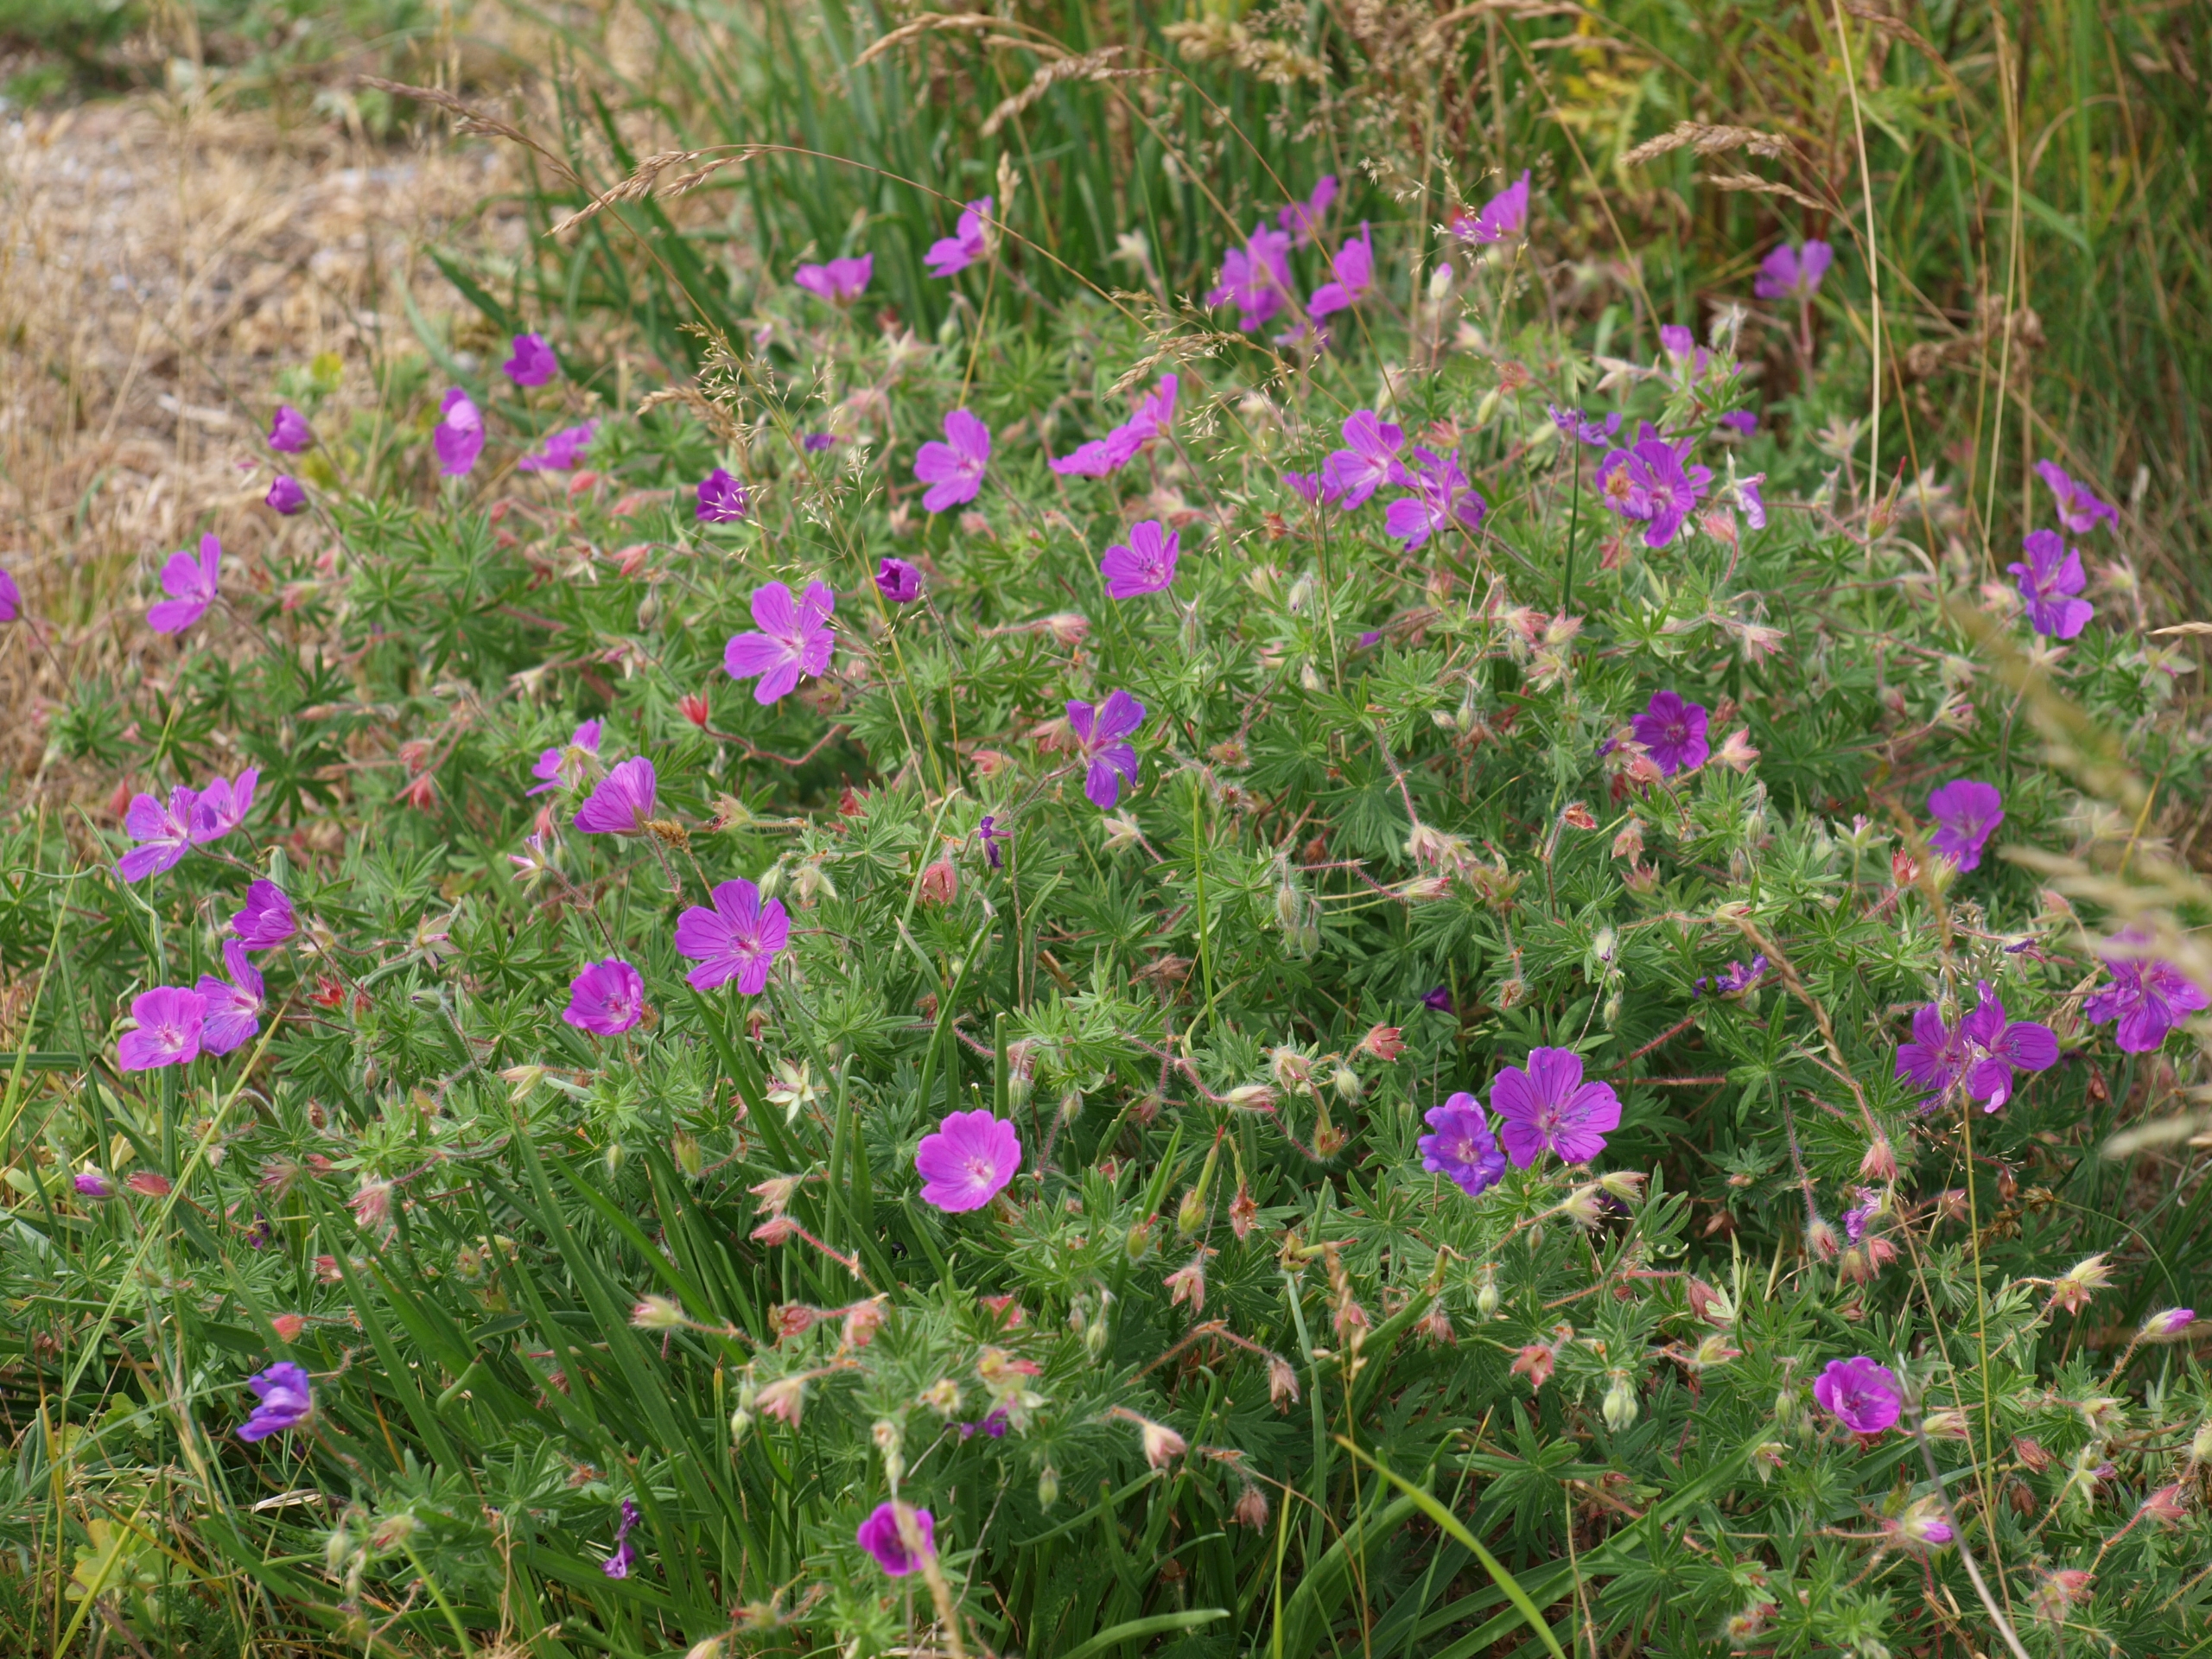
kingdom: Plantae
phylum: Tracheophyta
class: Magnoliopsida
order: Geraniales
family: Geraniaceae
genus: Geranium
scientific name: Geranium sanguineum
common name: Blodrød storkenæb
